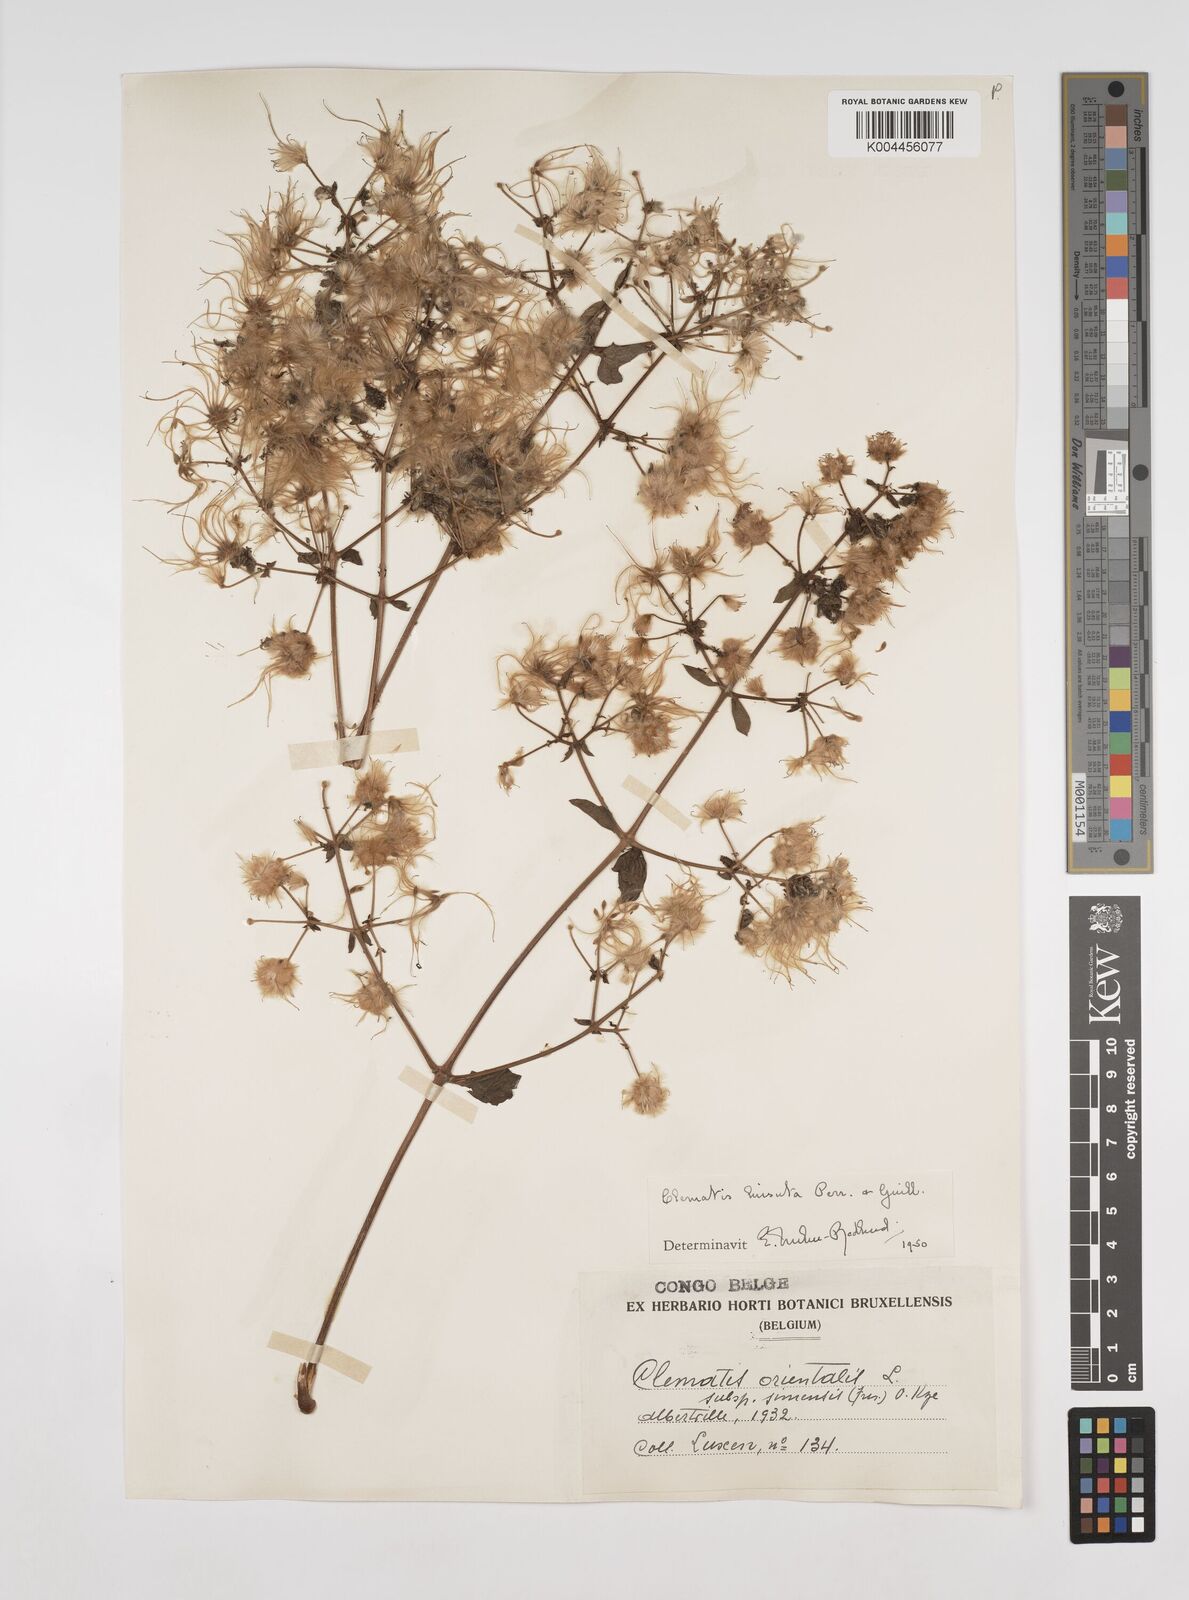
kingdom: Plantae
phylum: Tracheophyta
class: Magnoliopsida
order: Ranunculales
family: Ranunculaceae
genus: Clematis
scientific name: Clematis
